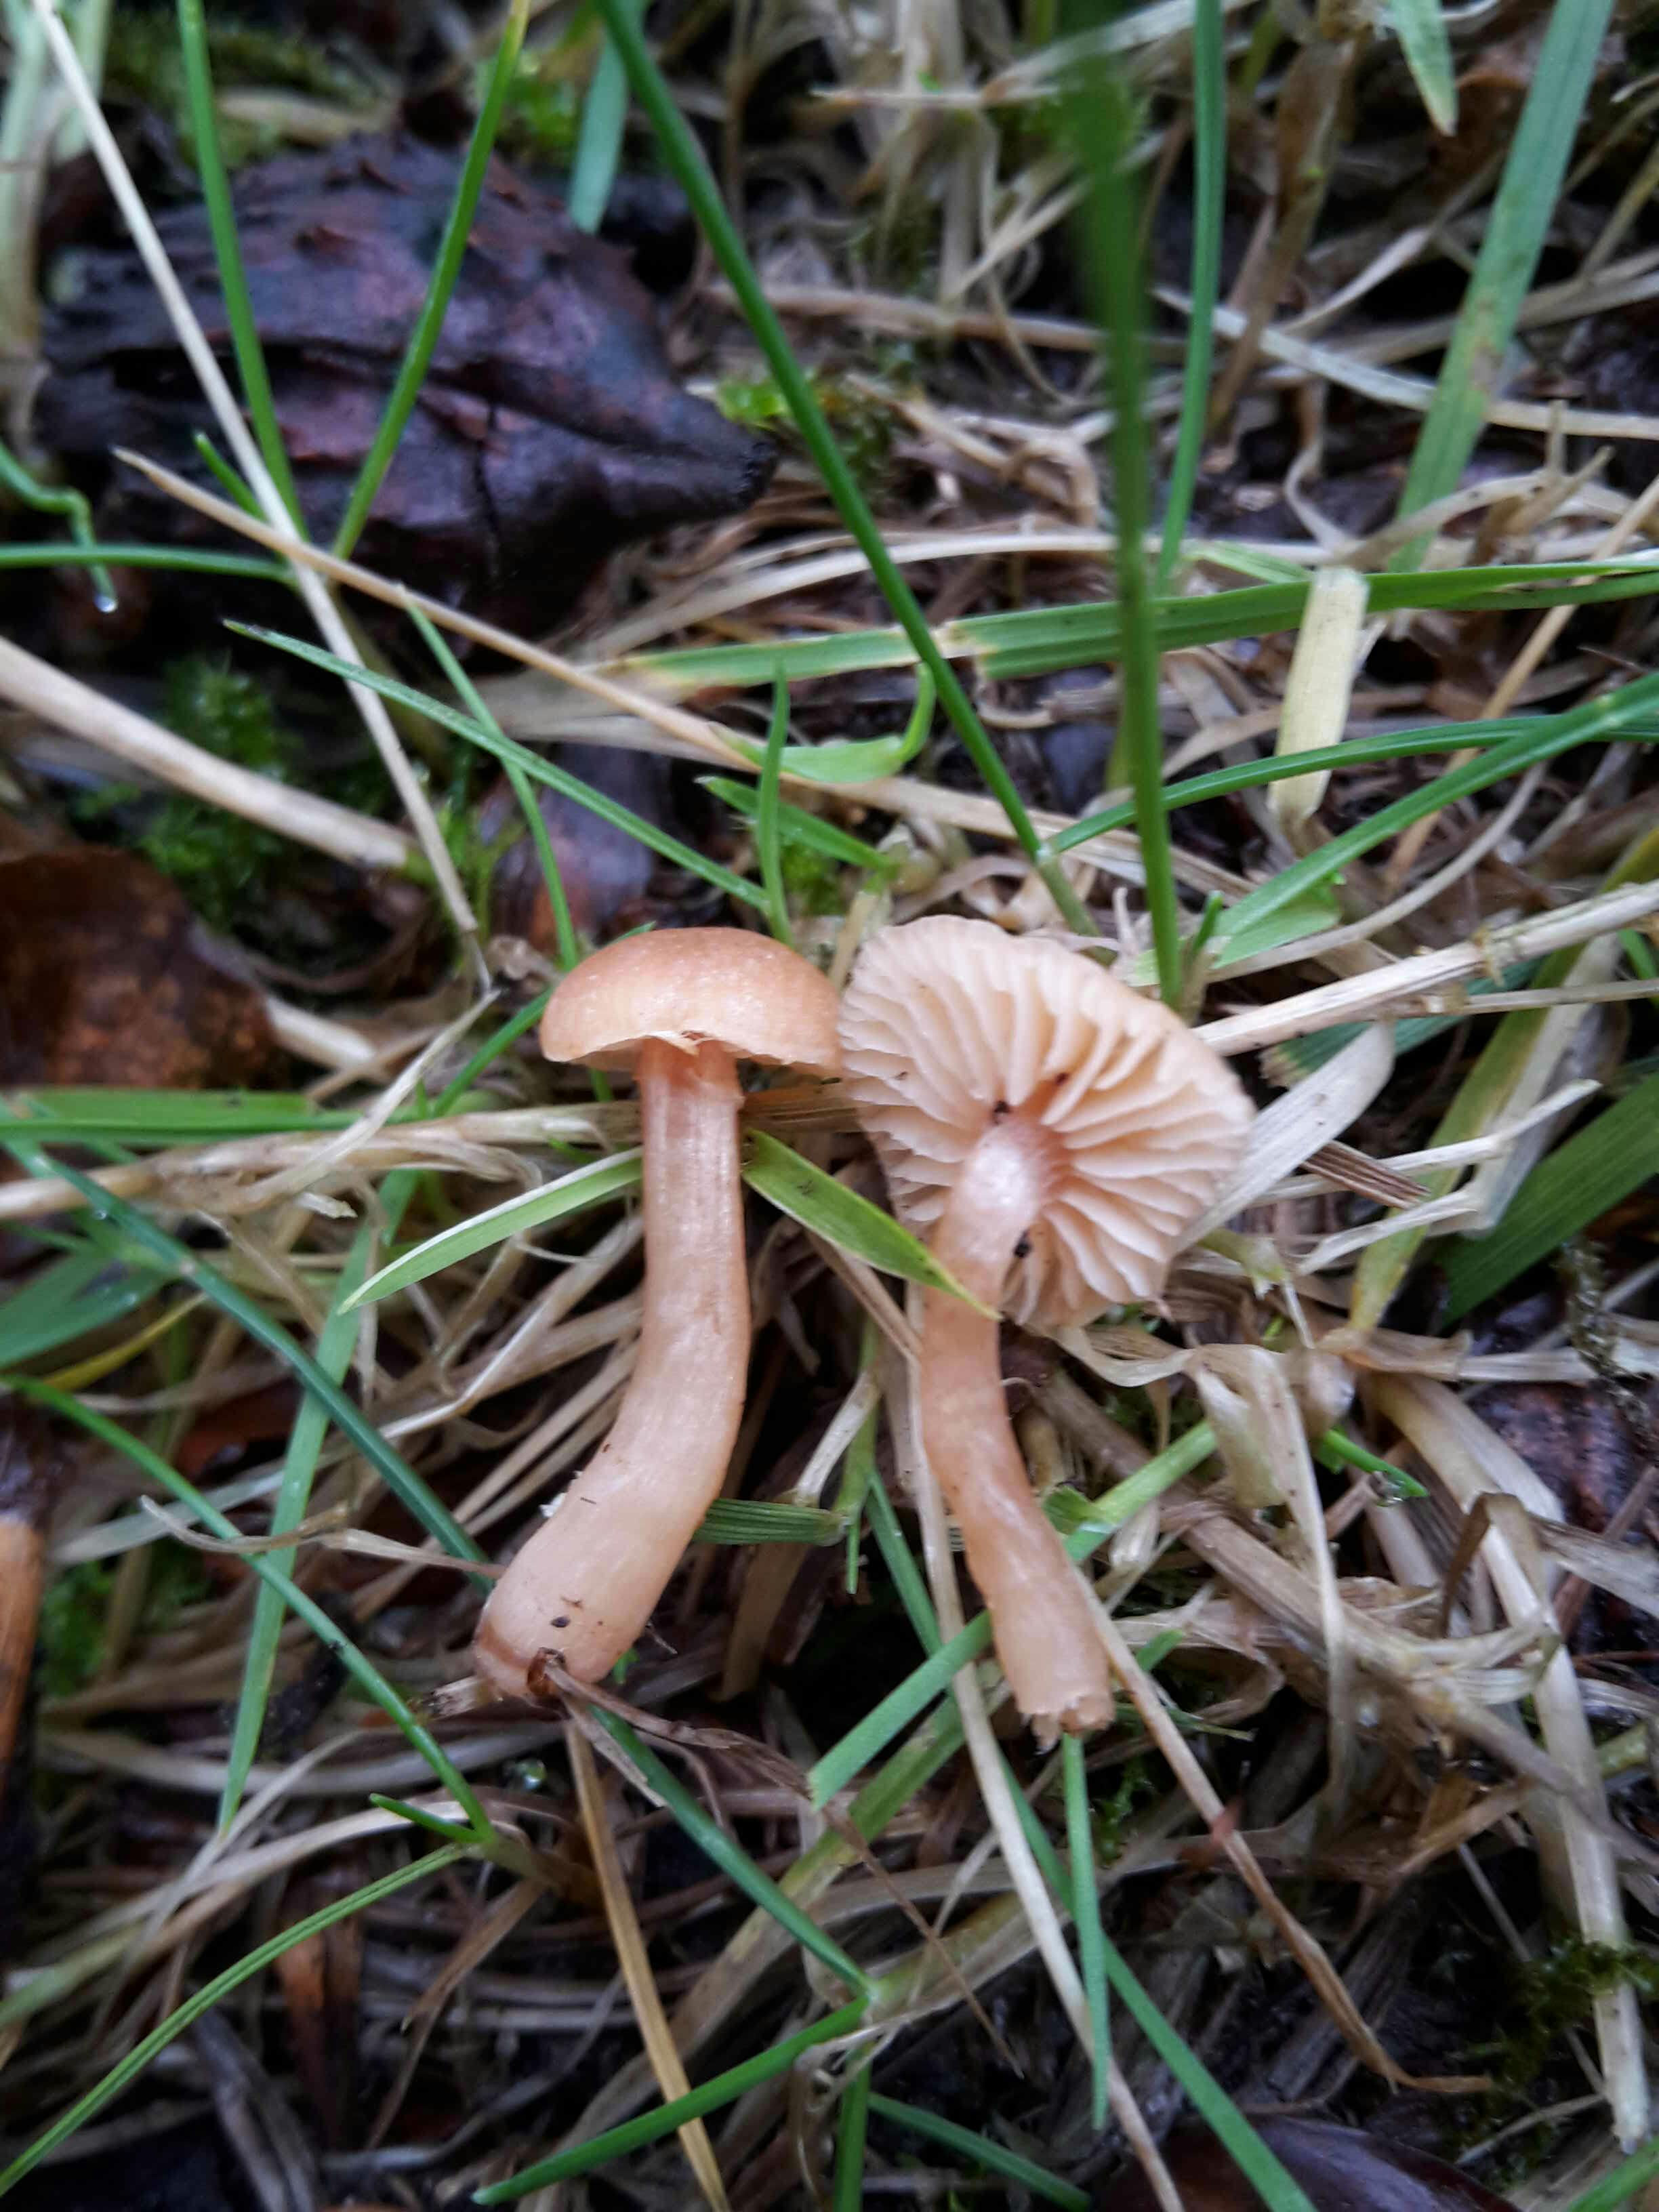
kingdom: Fungi
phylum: Basidiomycota
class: Agaricomycetes
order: Agaricales
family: Hydnangiaceae
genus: Laccaria
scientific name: Laccaria laccata
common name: rød ametysthat
